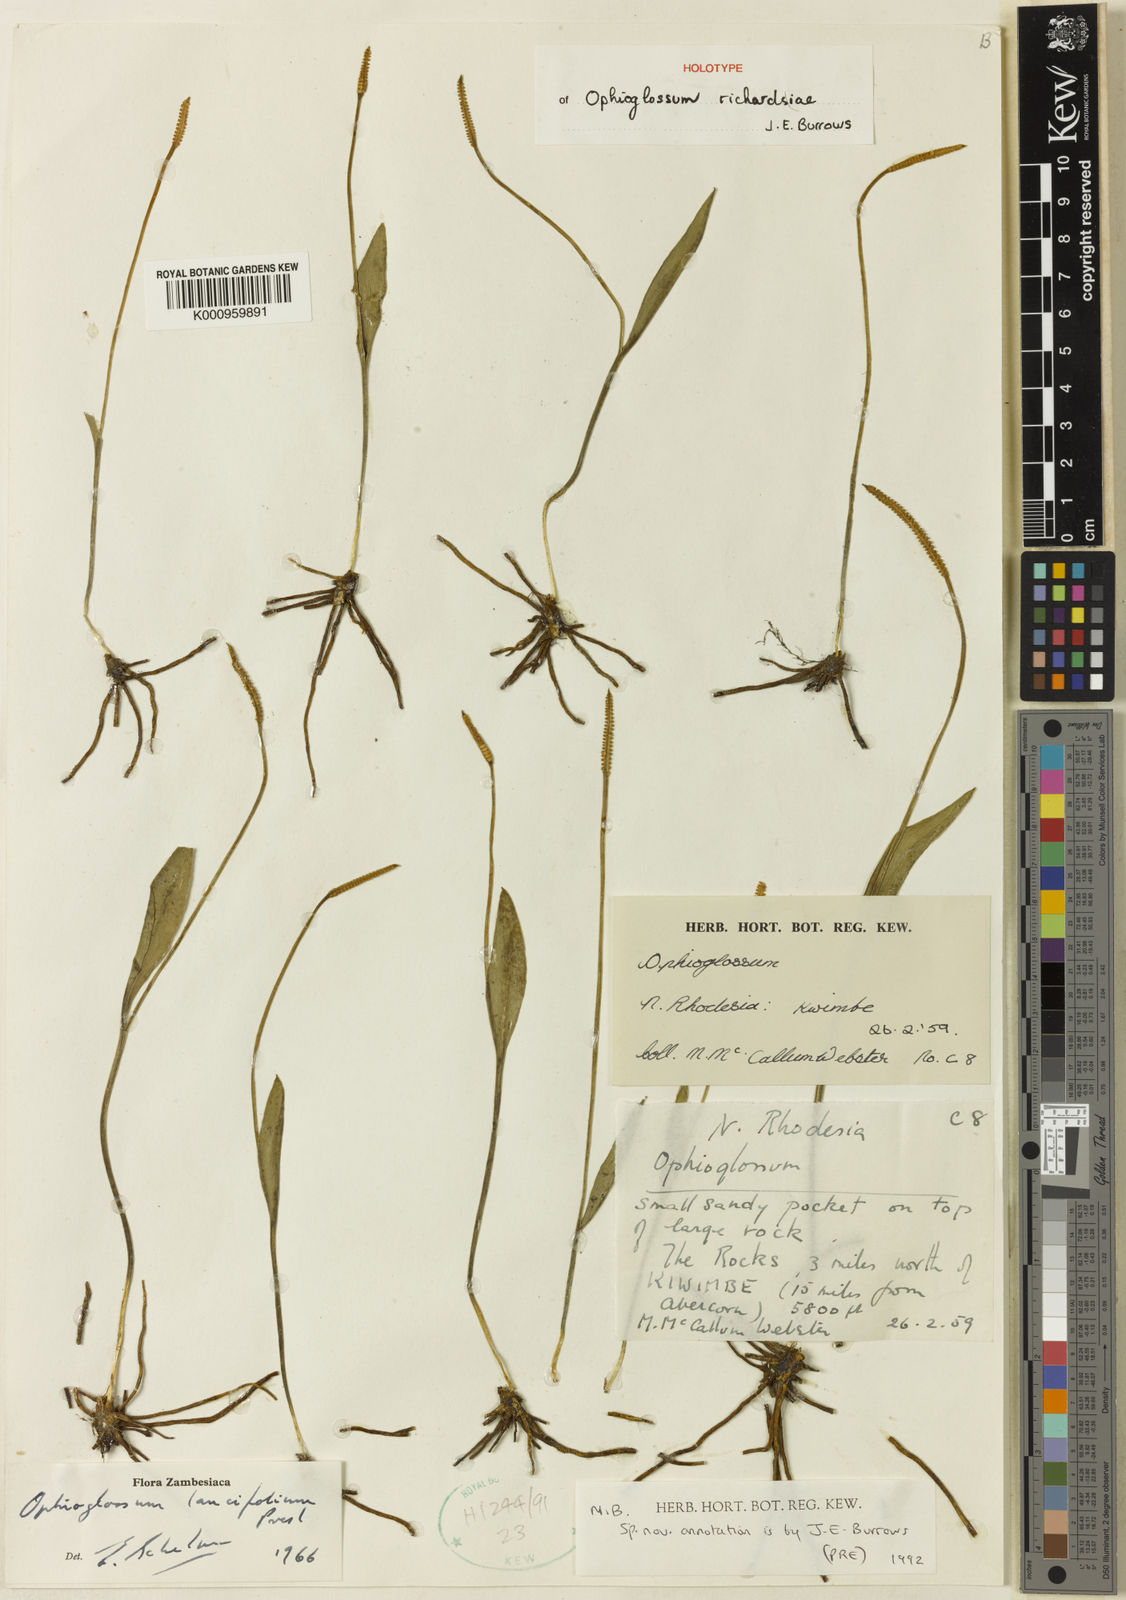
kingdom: Plantae
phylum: Tracheophyta
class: Polypodiopsida
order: Ophioglossales
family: Ophioglossaceae
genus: Ophioglossum
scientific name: Ophioglossum lancifolium
